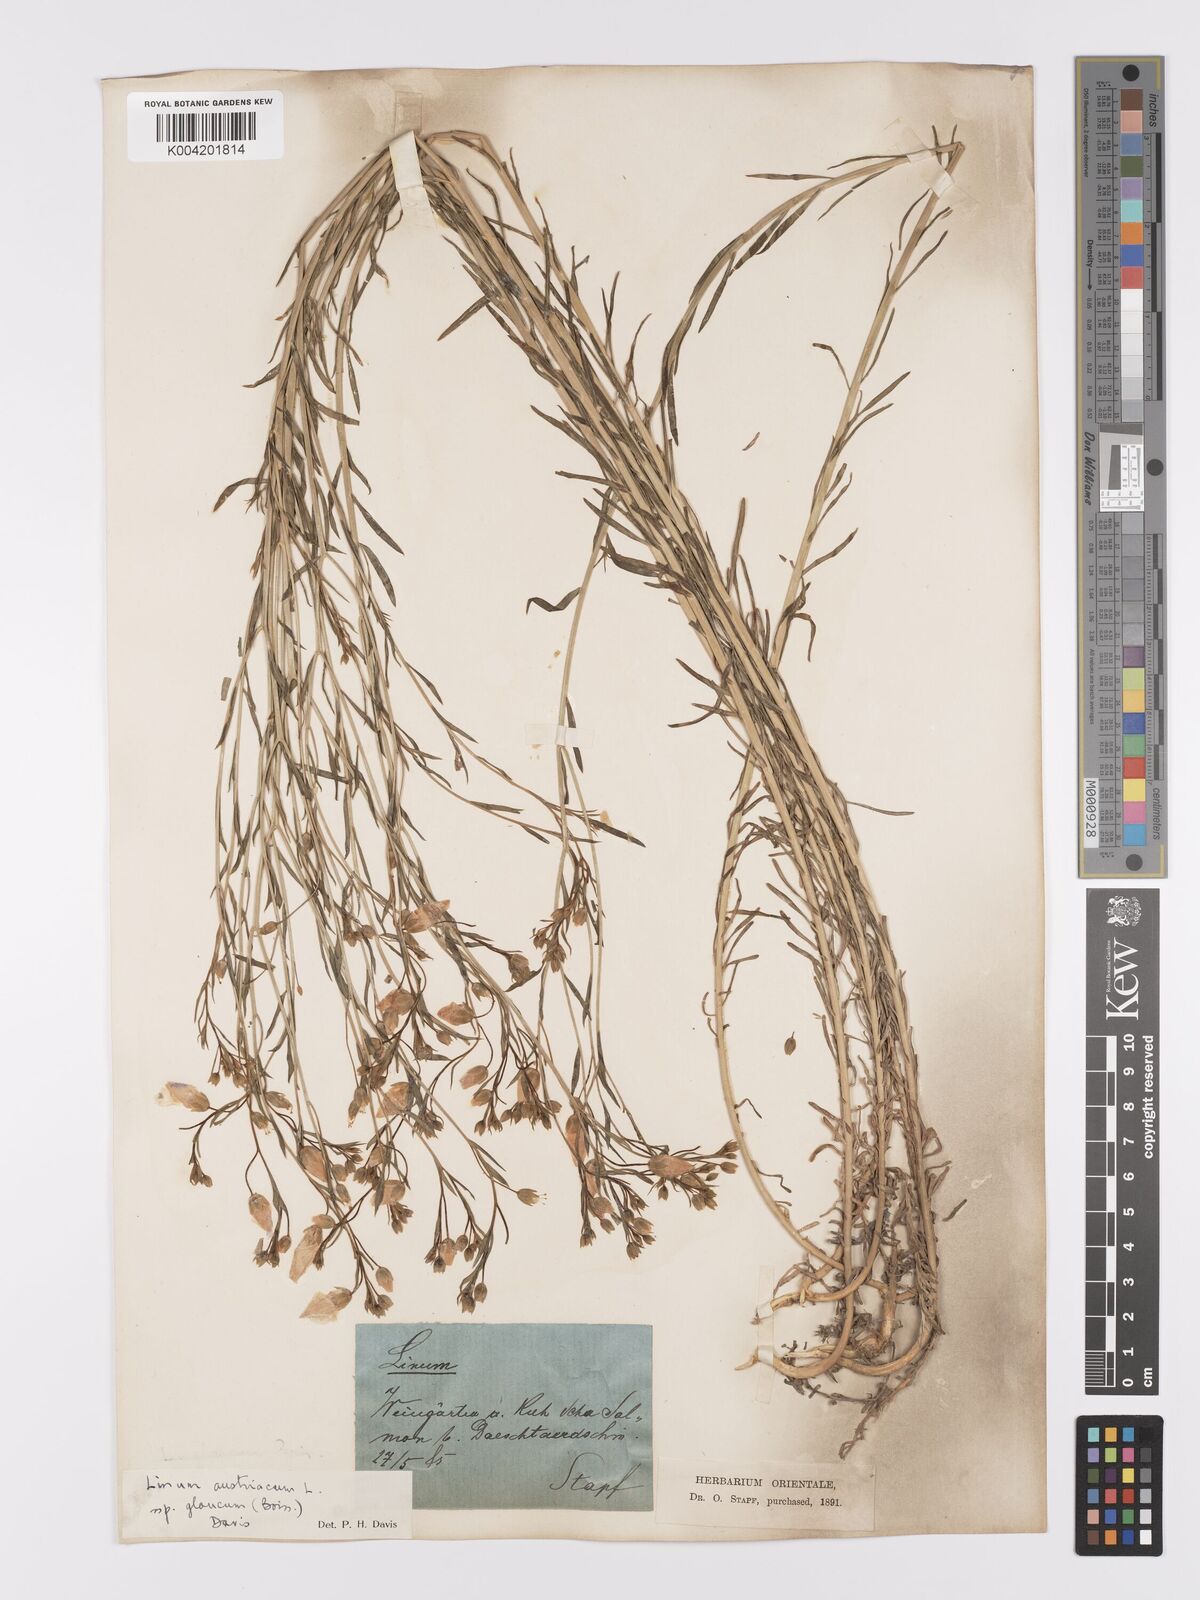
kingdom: Plantae
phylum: Tracheophyta
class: Magnoliopsida
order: Malpighiales
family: Linaceae
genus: Linum
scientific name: Linum
